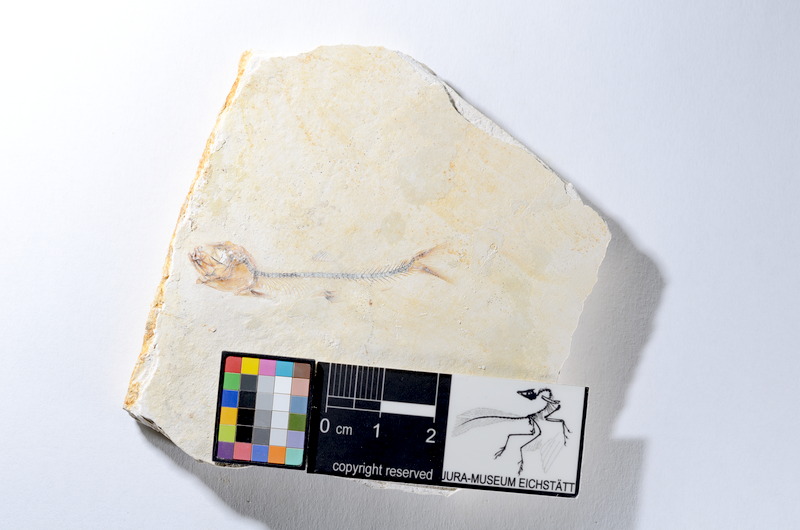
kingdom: Animalia
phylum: Chordata
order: Salmoniformes
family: Orthogonikleithridae
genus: Orthogonikleithrus
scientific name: Orthogonikleithrus hoelli
